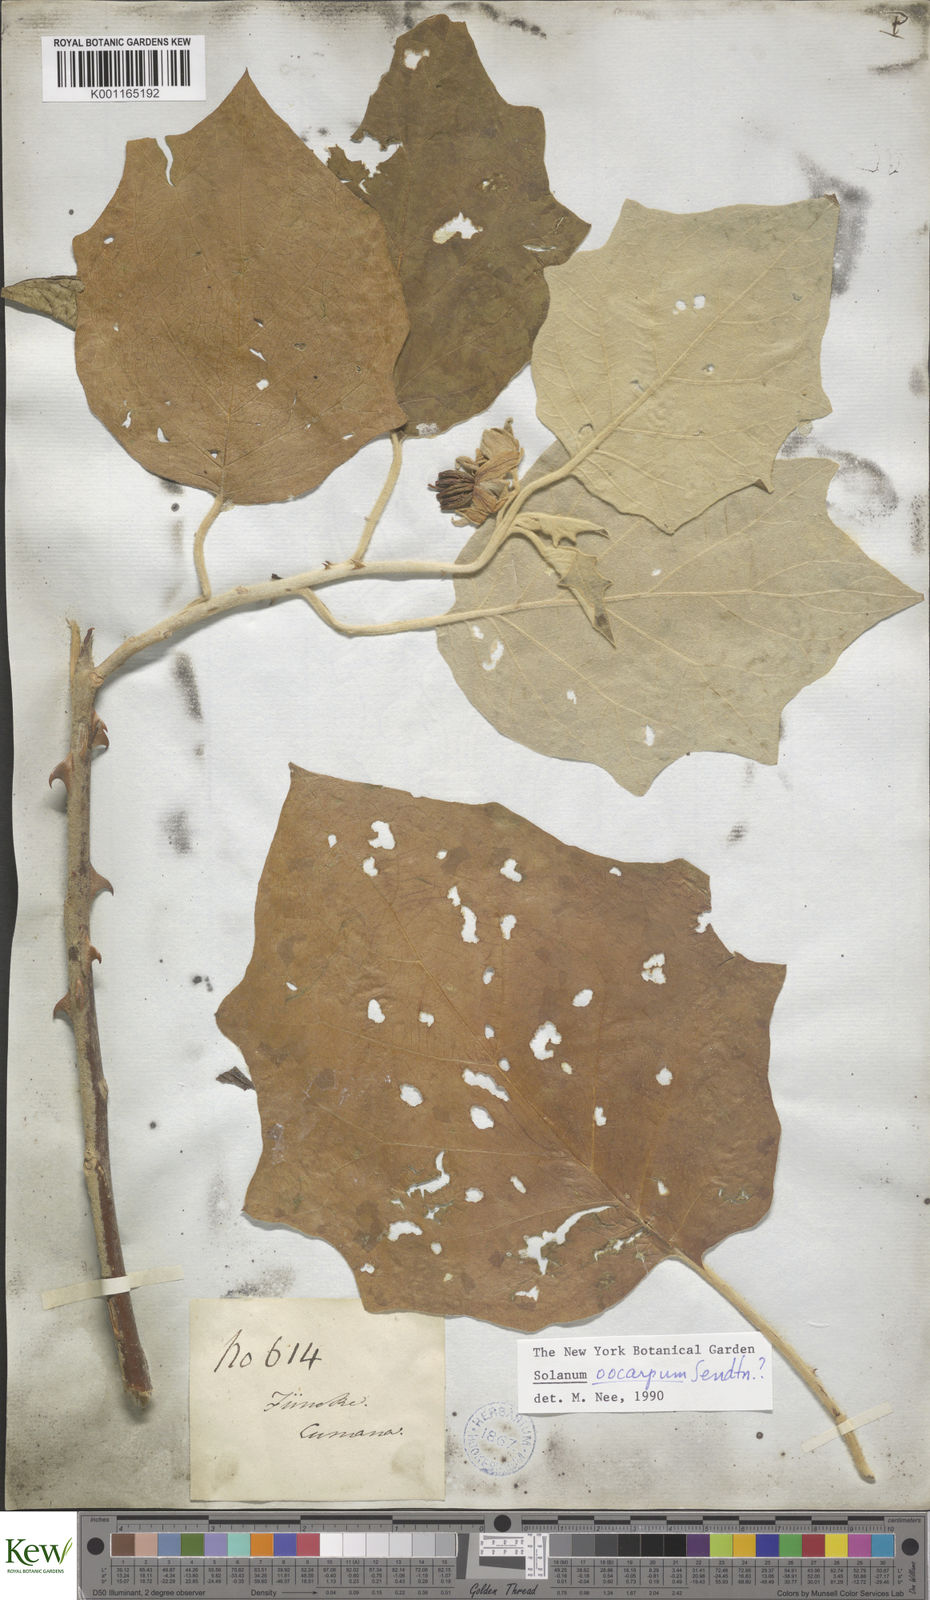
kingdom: Plantae
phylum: Tracheophyta
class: Magnoliopsida
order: Solanales
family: Solanaceae
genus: Solanum
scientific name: Solanum oocarpum
